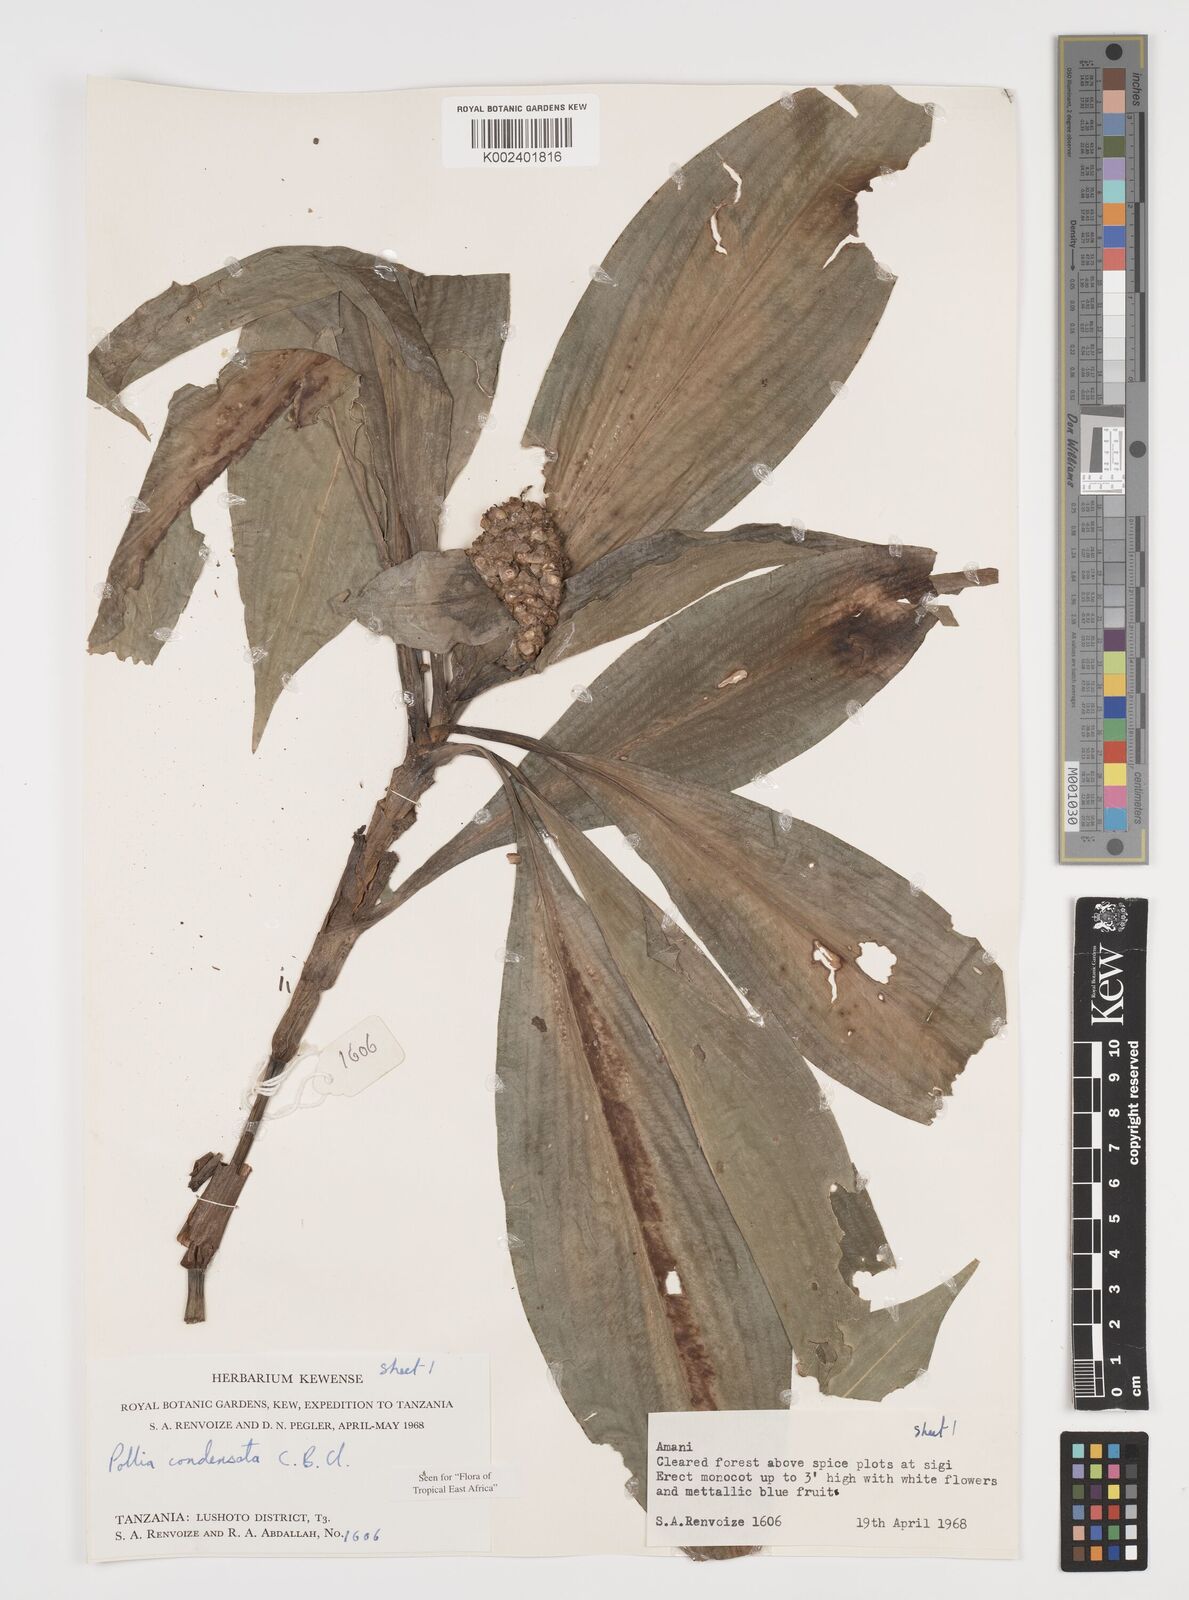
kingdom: Plantae
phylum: Tracheophyta
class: Liliopsida
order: Commelinales
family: Commelinaceae
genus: Pollia
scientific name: Pollia condensata
